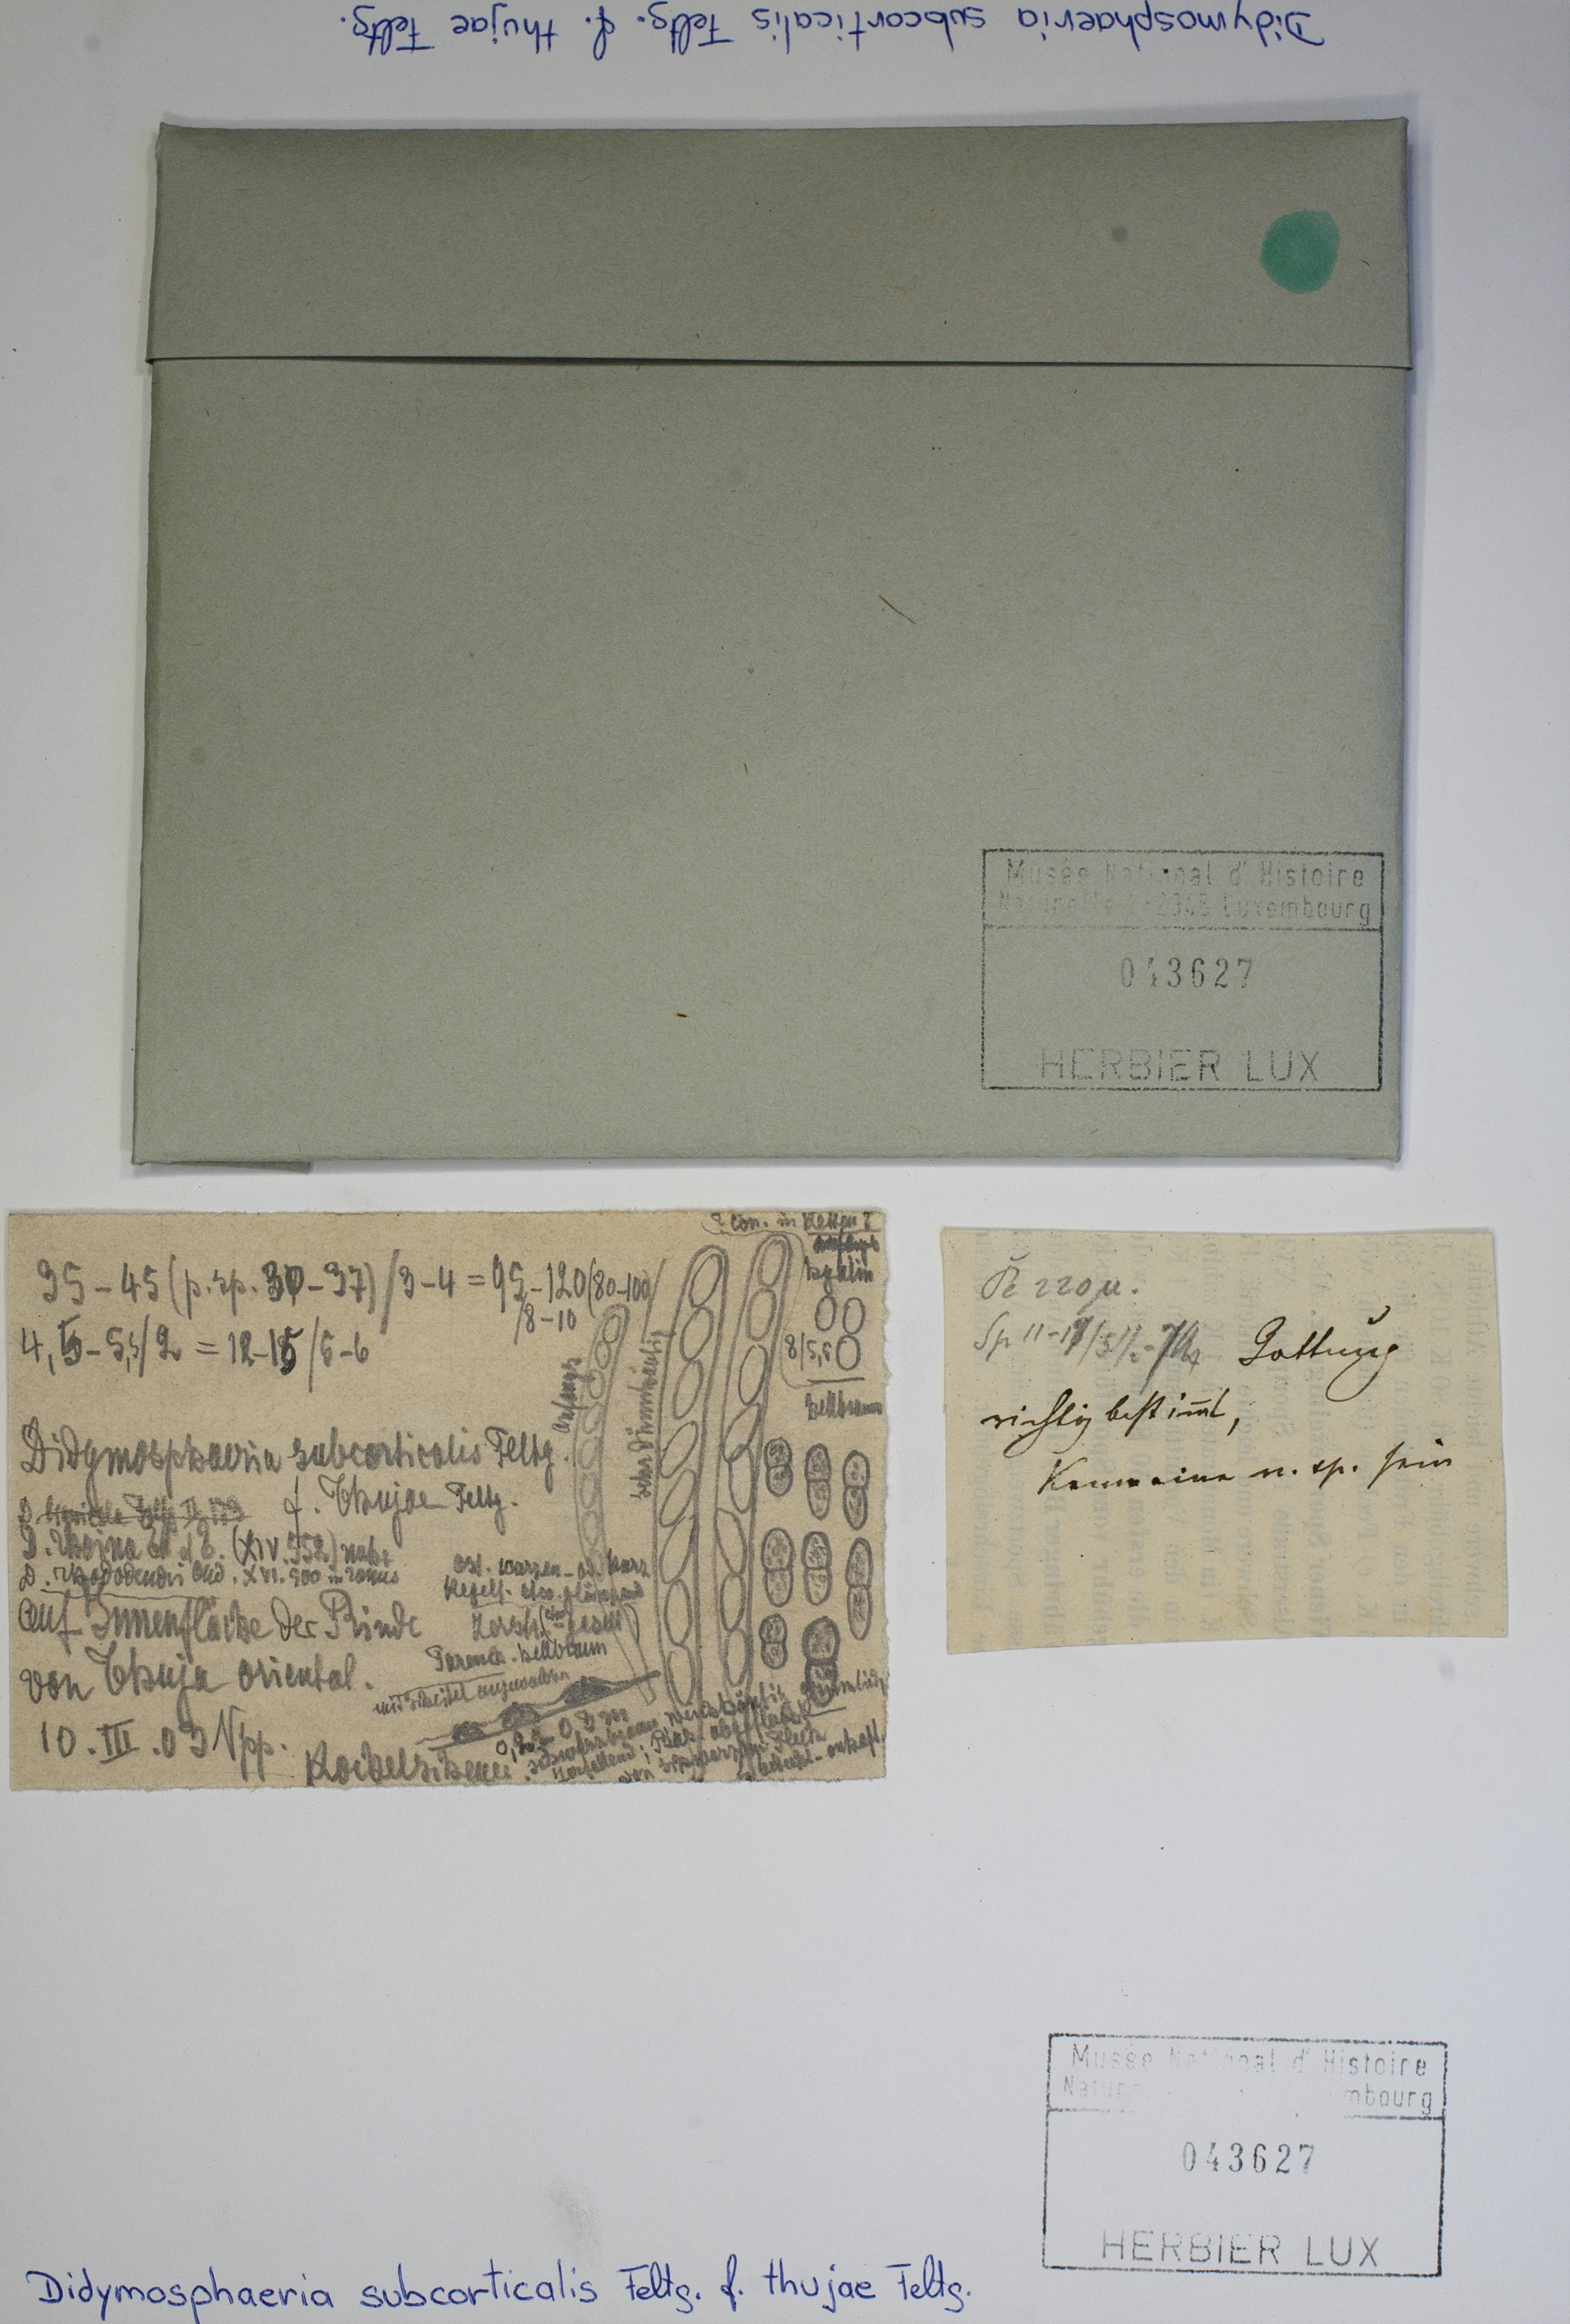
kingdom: Fungi
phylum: Ascomycota
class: Dothideomycetes
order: Pleosporales
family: Didymosphaeriaceae
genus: Didymosphaeria
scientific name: Didymosphaeria subcorticalis
